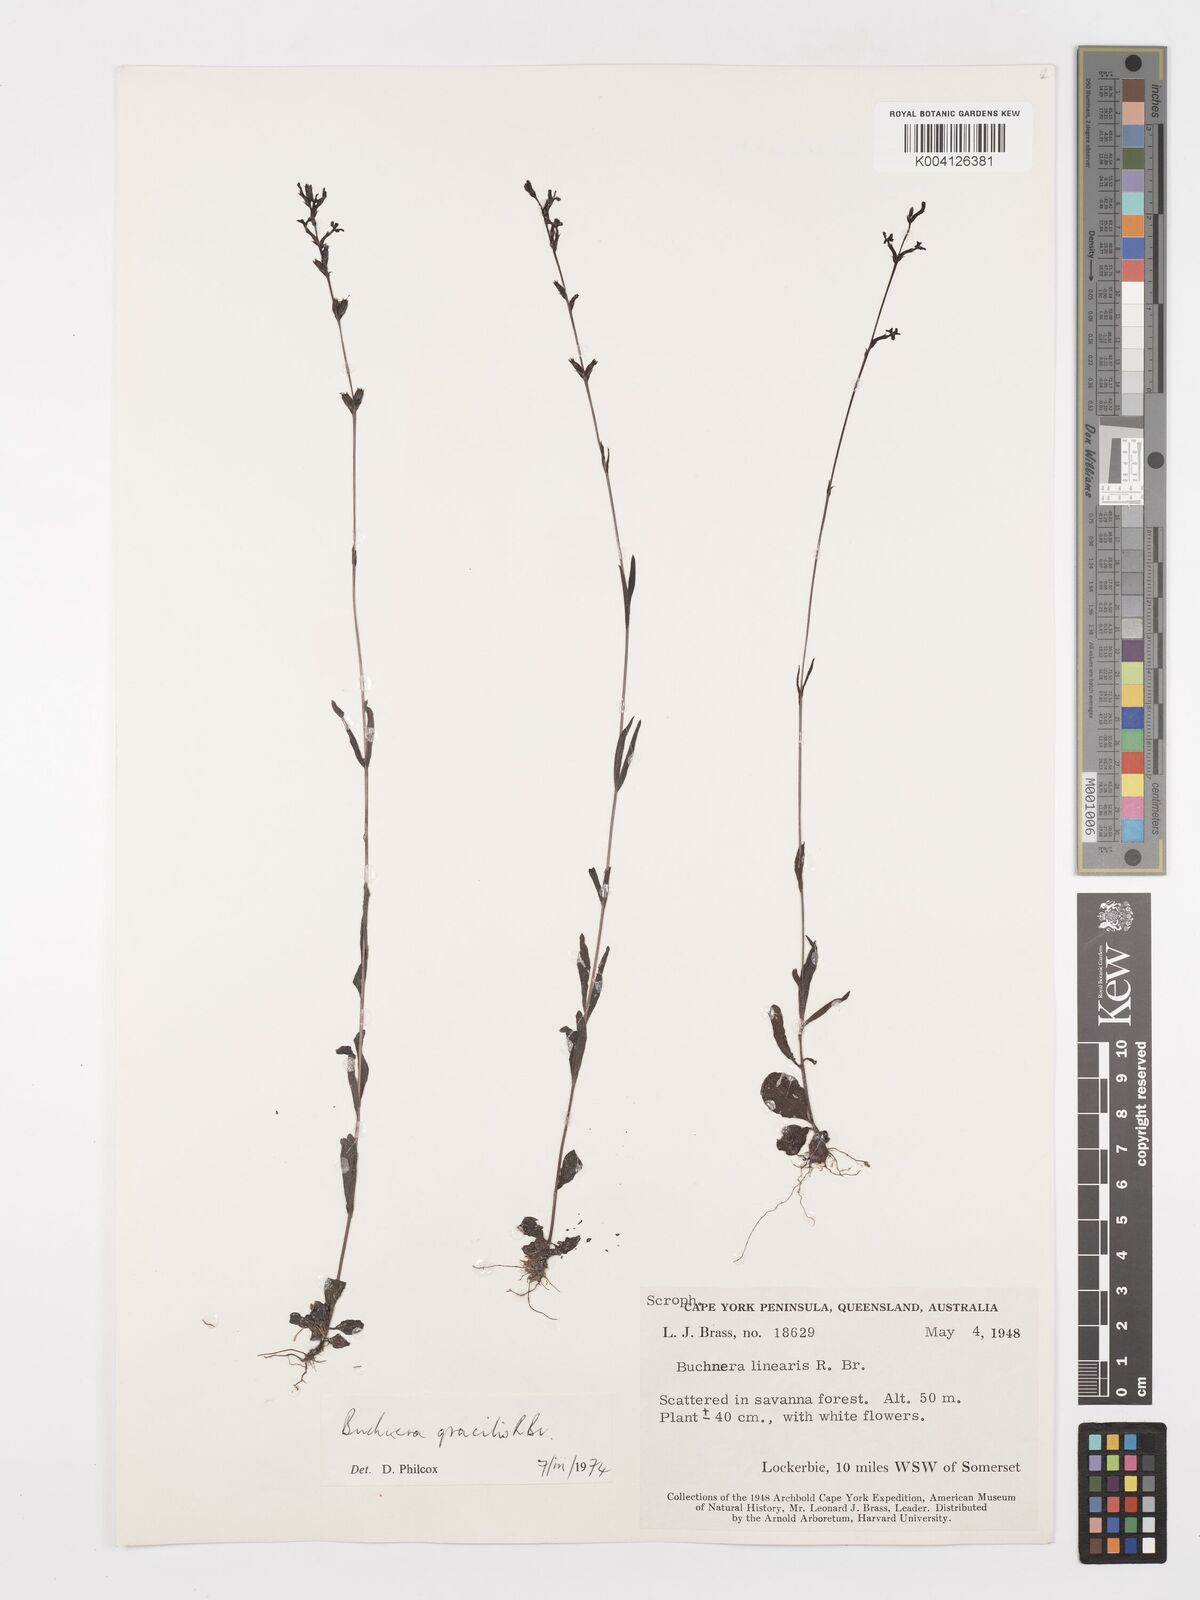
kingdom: Plantae
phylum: Tracheophyta
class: Magnoliopsida
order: Lamiales
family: Orobanchaceae
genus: Buchnera
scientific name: Buchnera gracilis
